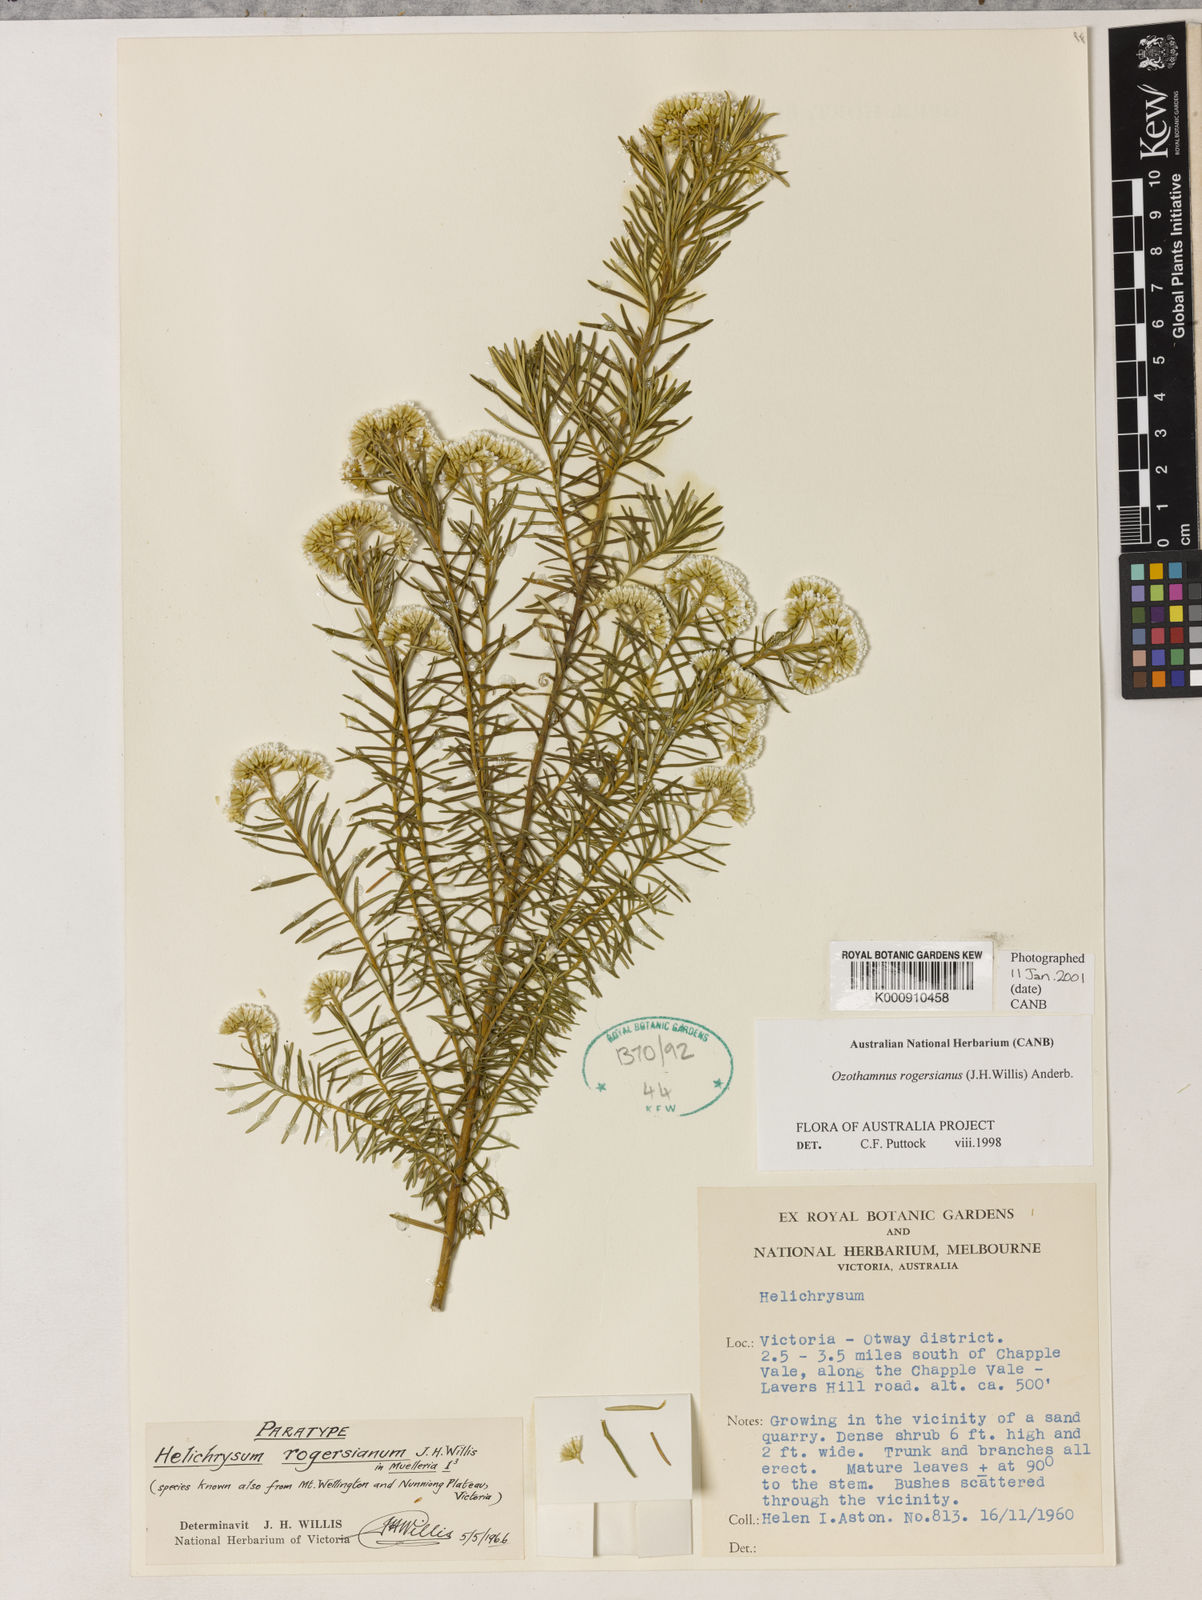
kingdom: Plantae
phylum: Tracheophyta
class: Magnoliopsida
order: Asterales
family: Asteraceae
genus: Ozothamnus
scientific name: Ozothamnus rogersianus
